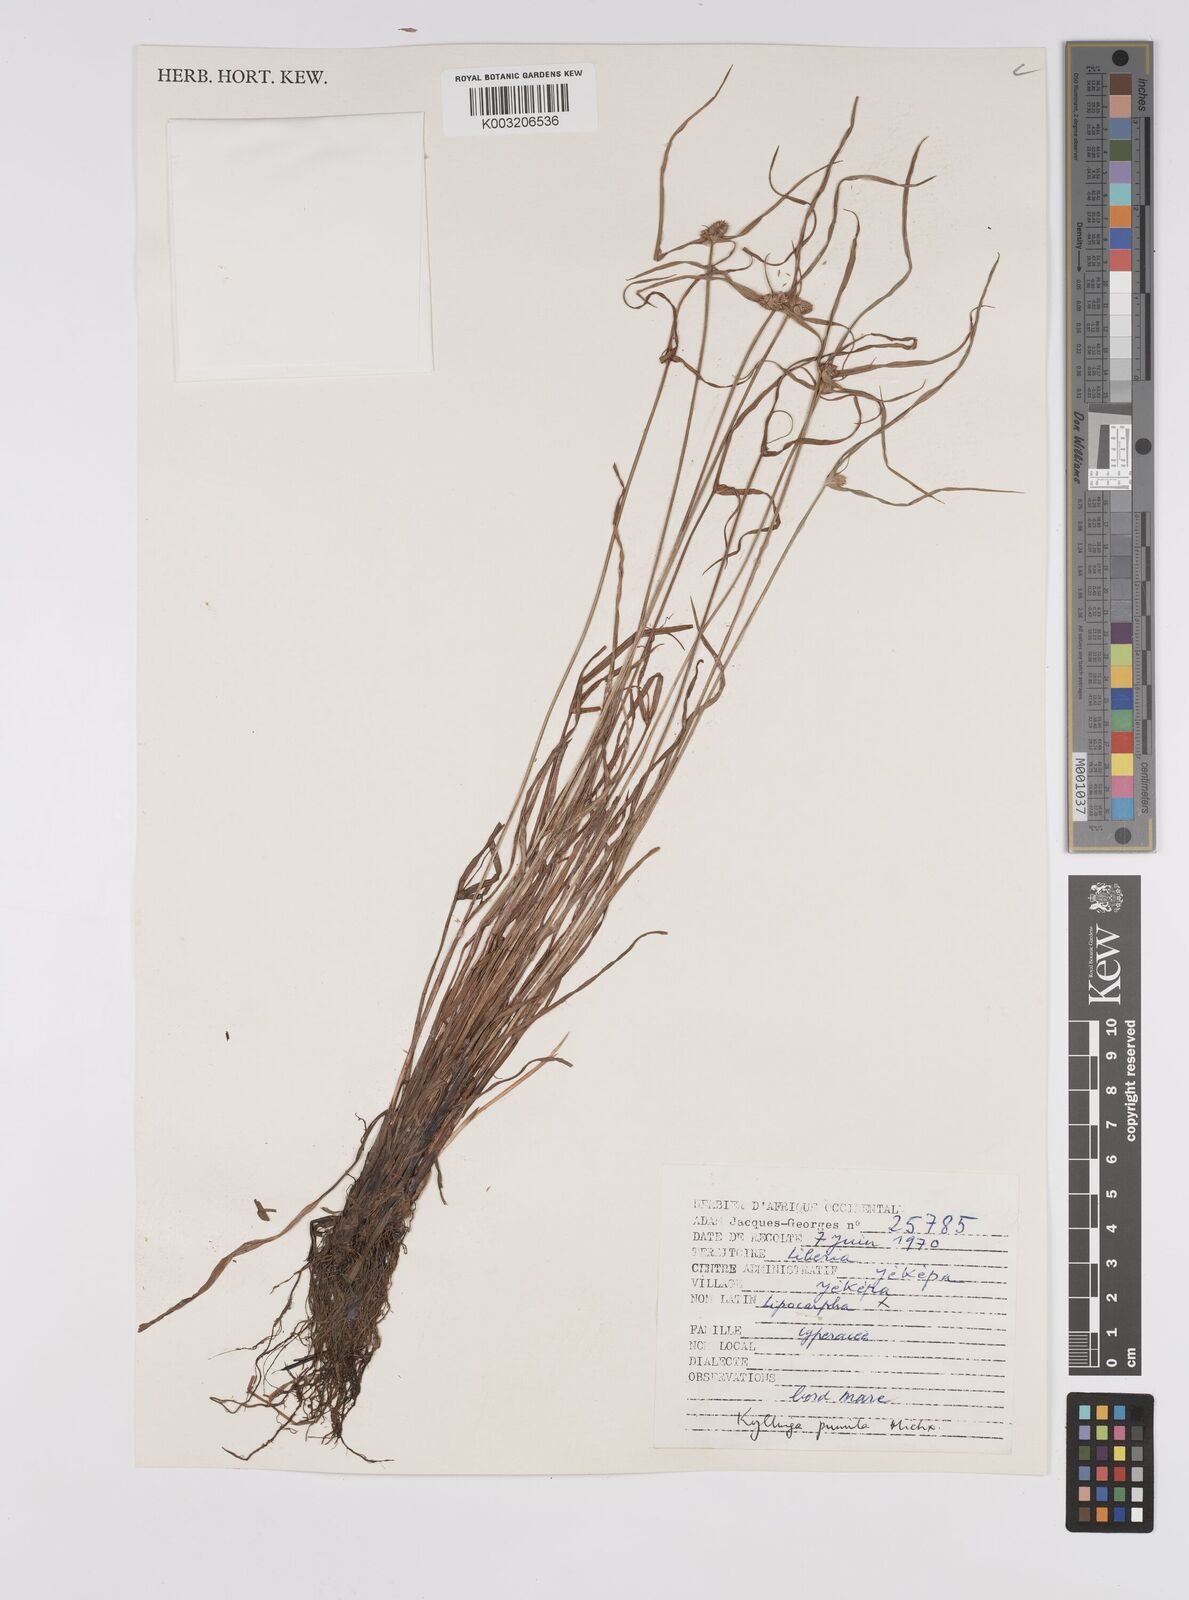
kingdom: Plantae
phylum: Tracheophyta
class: Liliopsida
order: Poales
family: Cyperaceae
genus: Cyperus
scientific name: Cyperus
